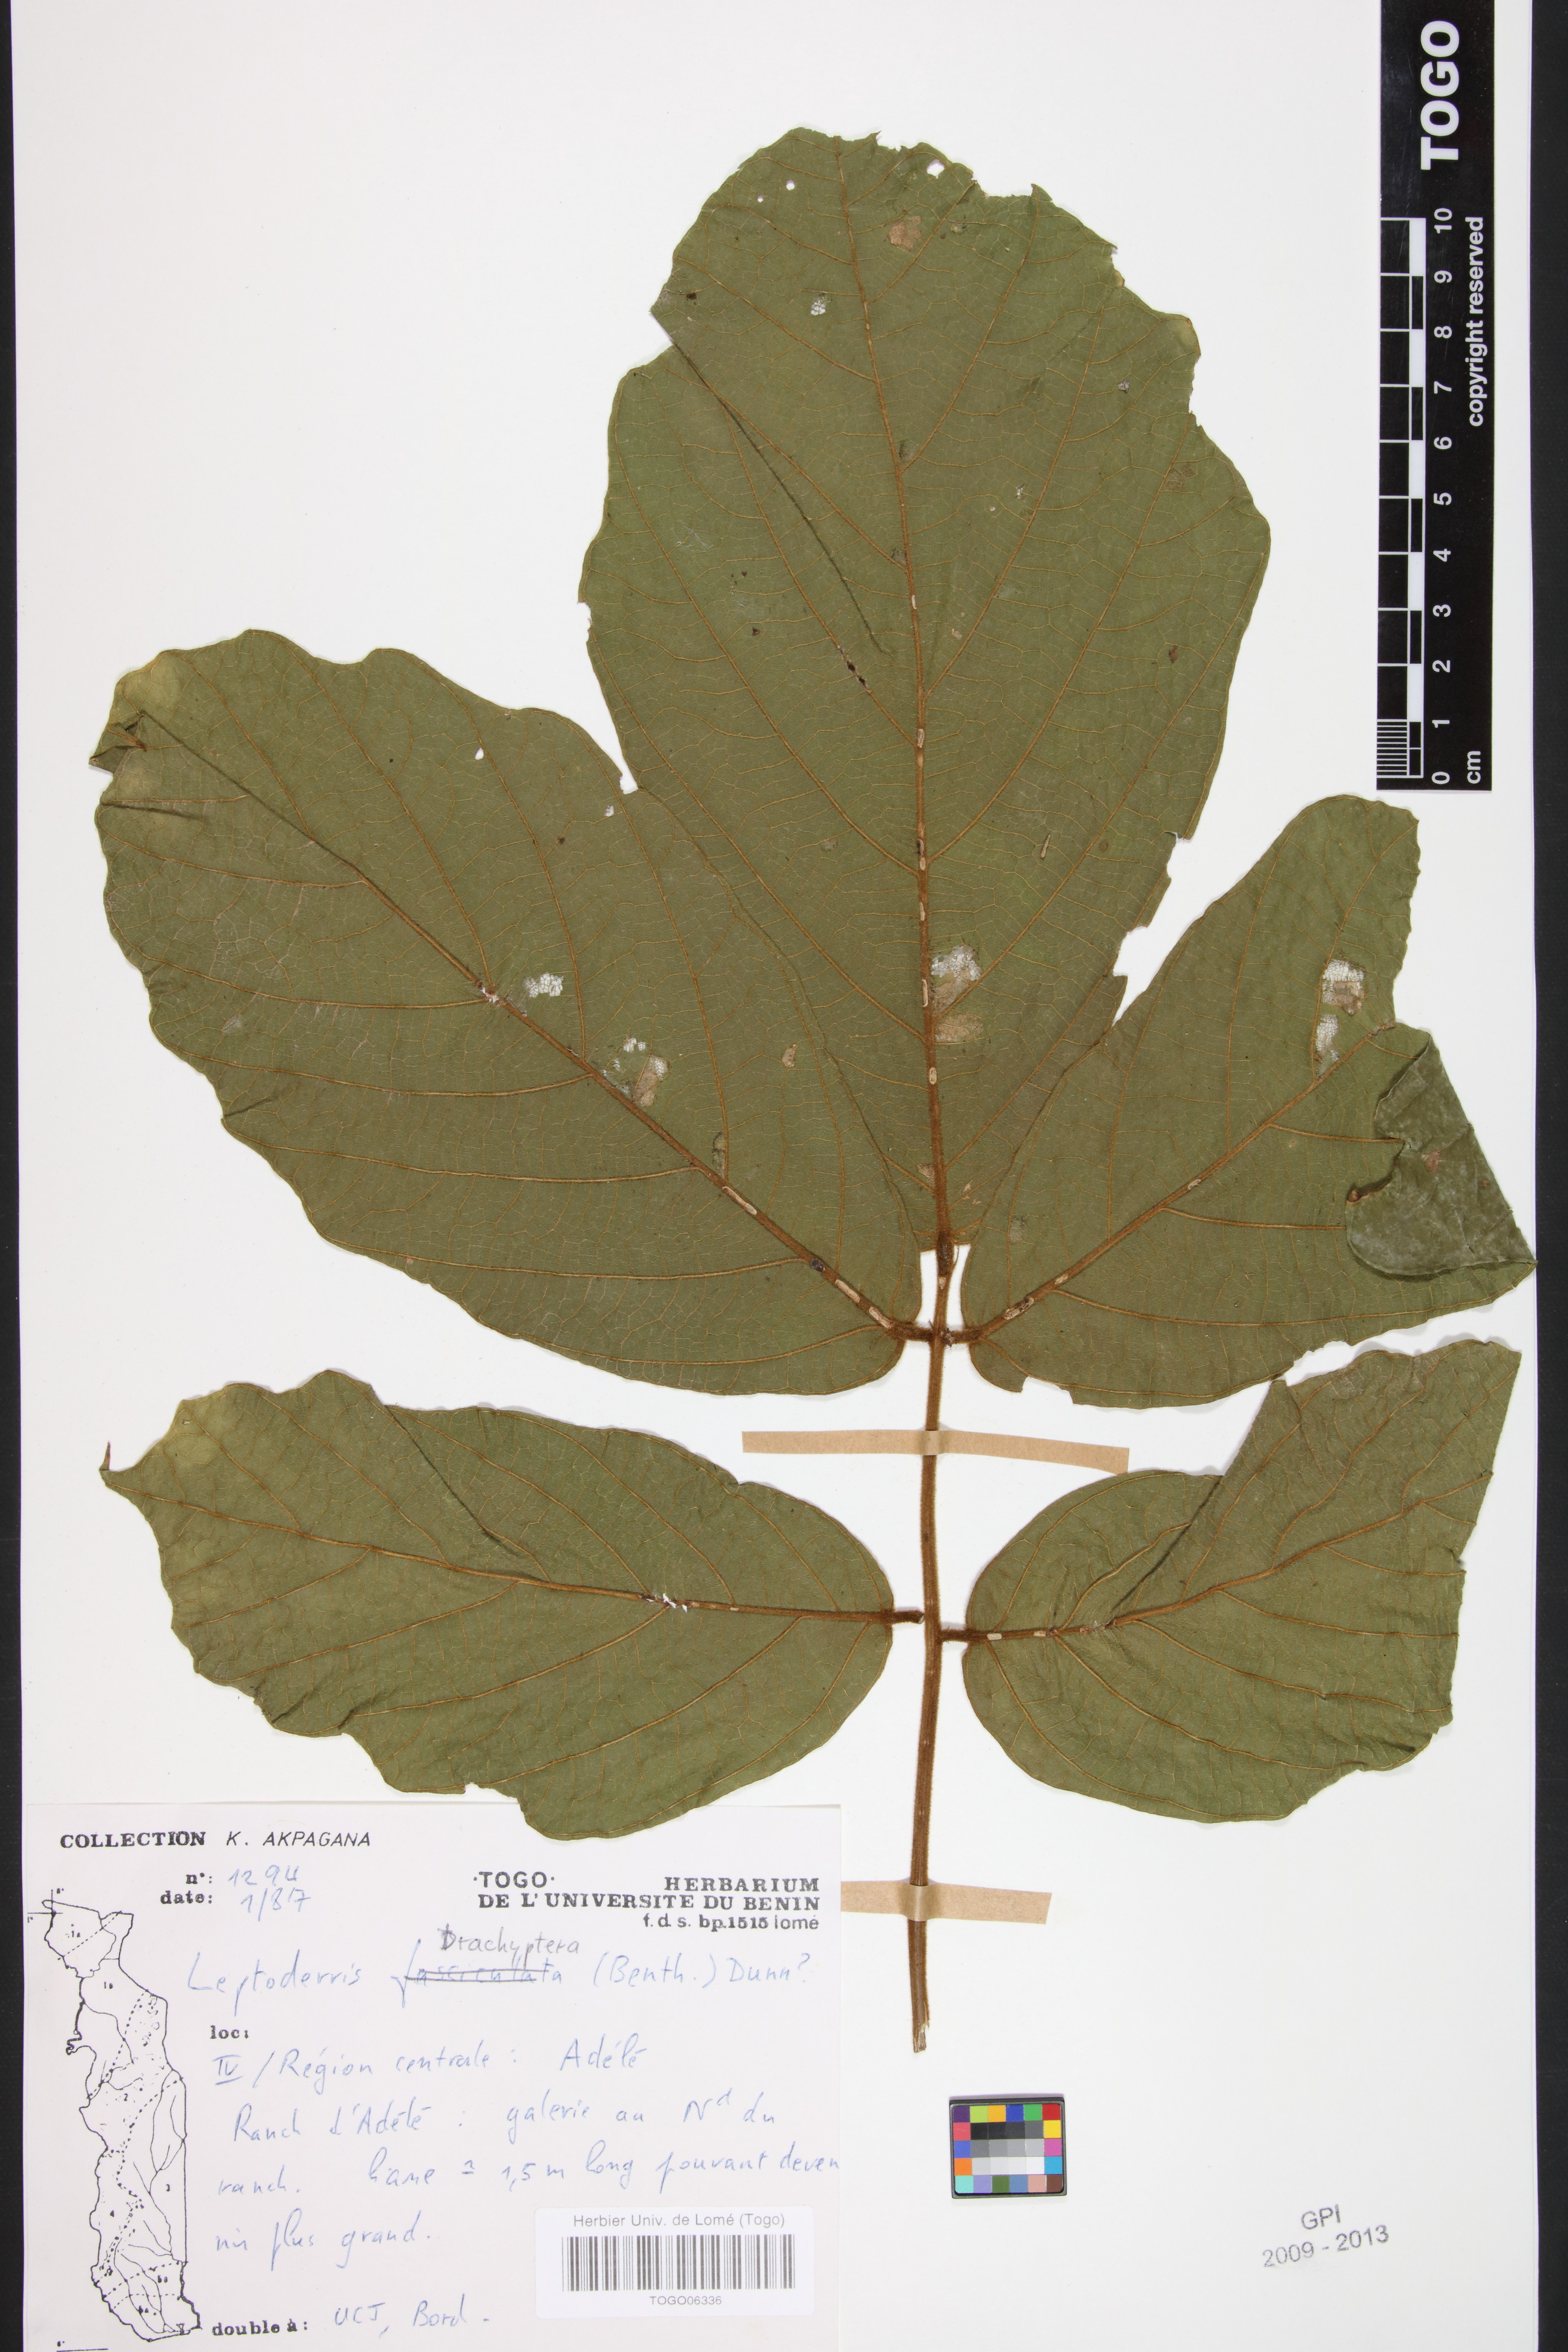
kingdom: Plantae
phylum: Tracheophyta
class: Magnoliopsida
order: Fabales
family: Fabaceae
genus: Leptoderris
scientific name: Leptoderris brachyptera
